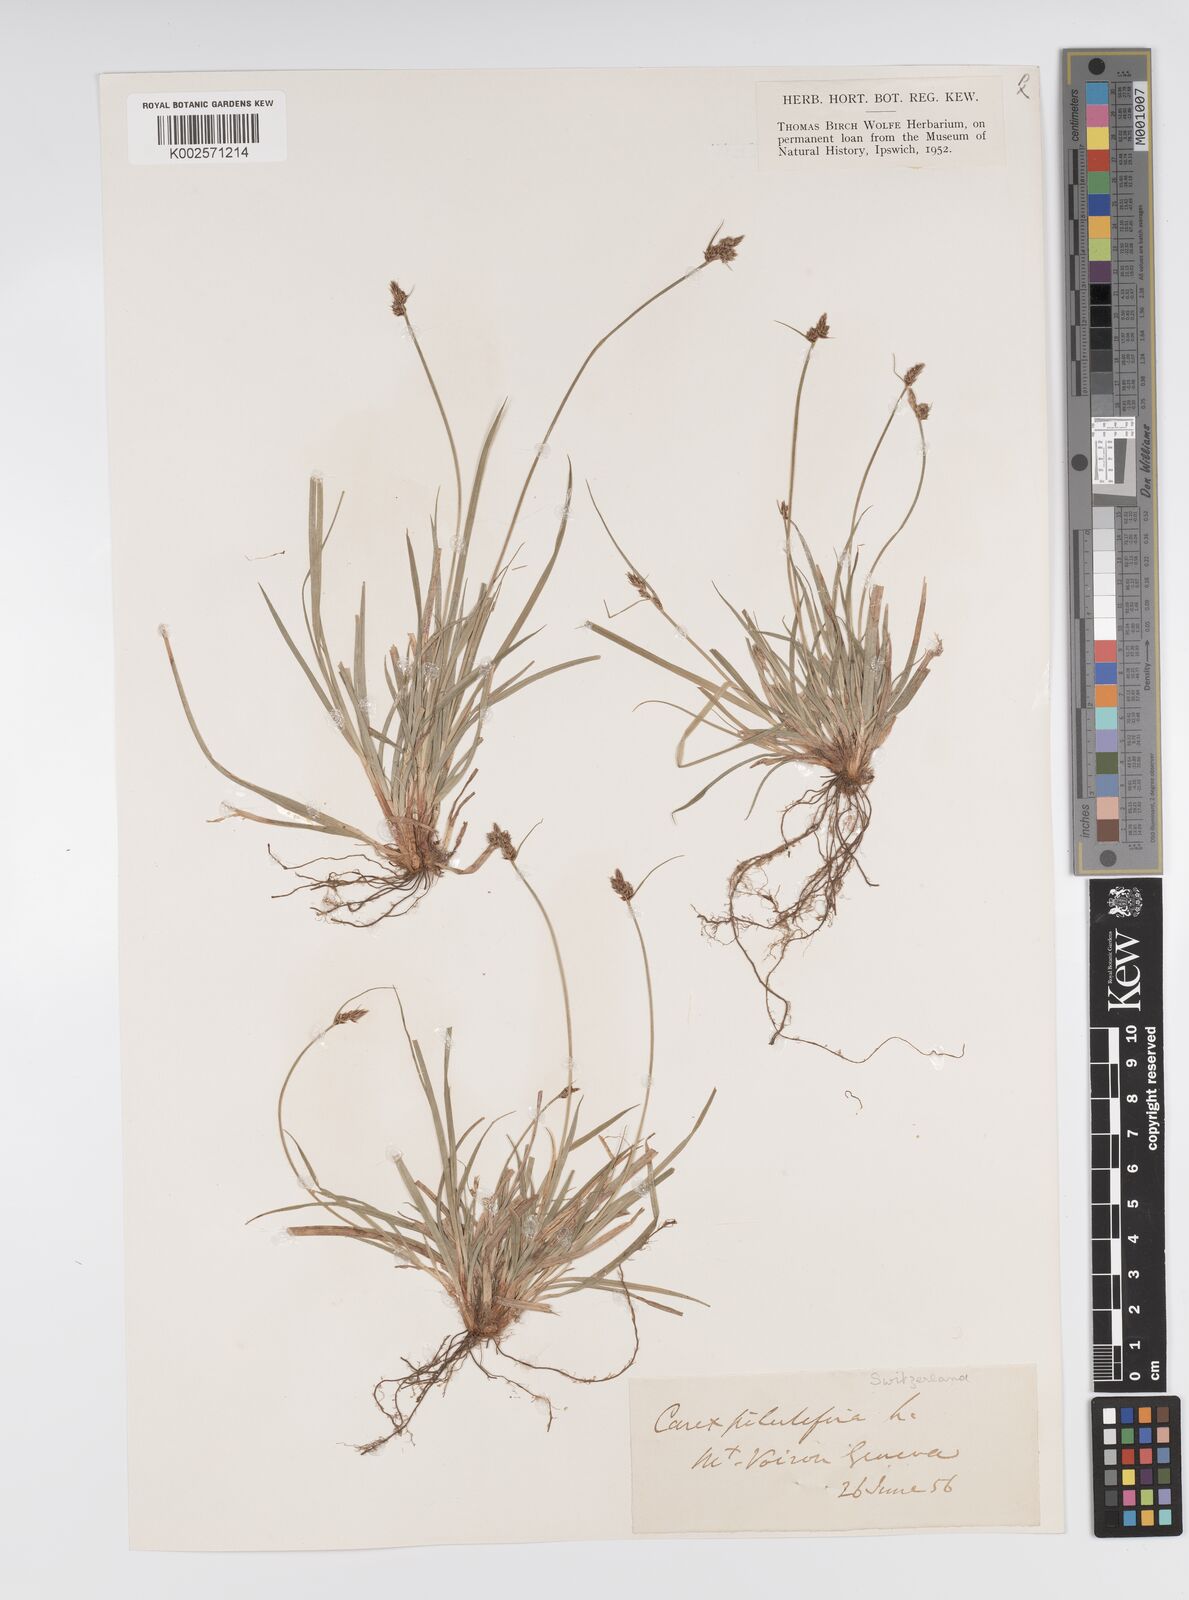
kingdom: Plantae
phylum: Tracheophyta
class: Liliopsida
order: Poales
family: Cyperaceae
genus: Carex
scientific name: Carex pilulifera
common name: Pill sedge
